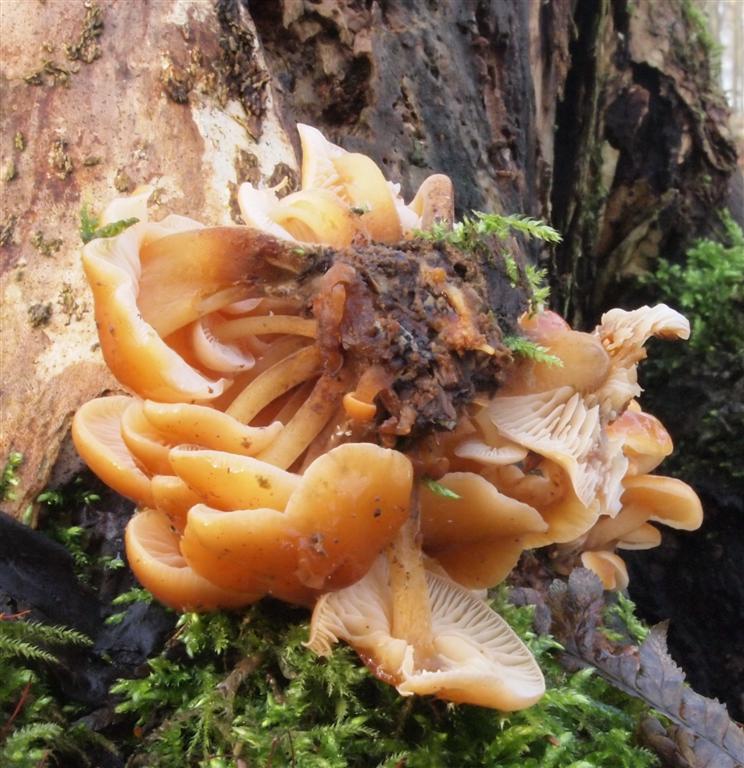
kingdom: Fungi
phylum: Basidiomycota
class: Agaricomycetes
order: Agaricales
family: Physalacriaceae
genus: Flammulina
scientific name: Flammulina velutipes
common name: gul fløjlsfod
